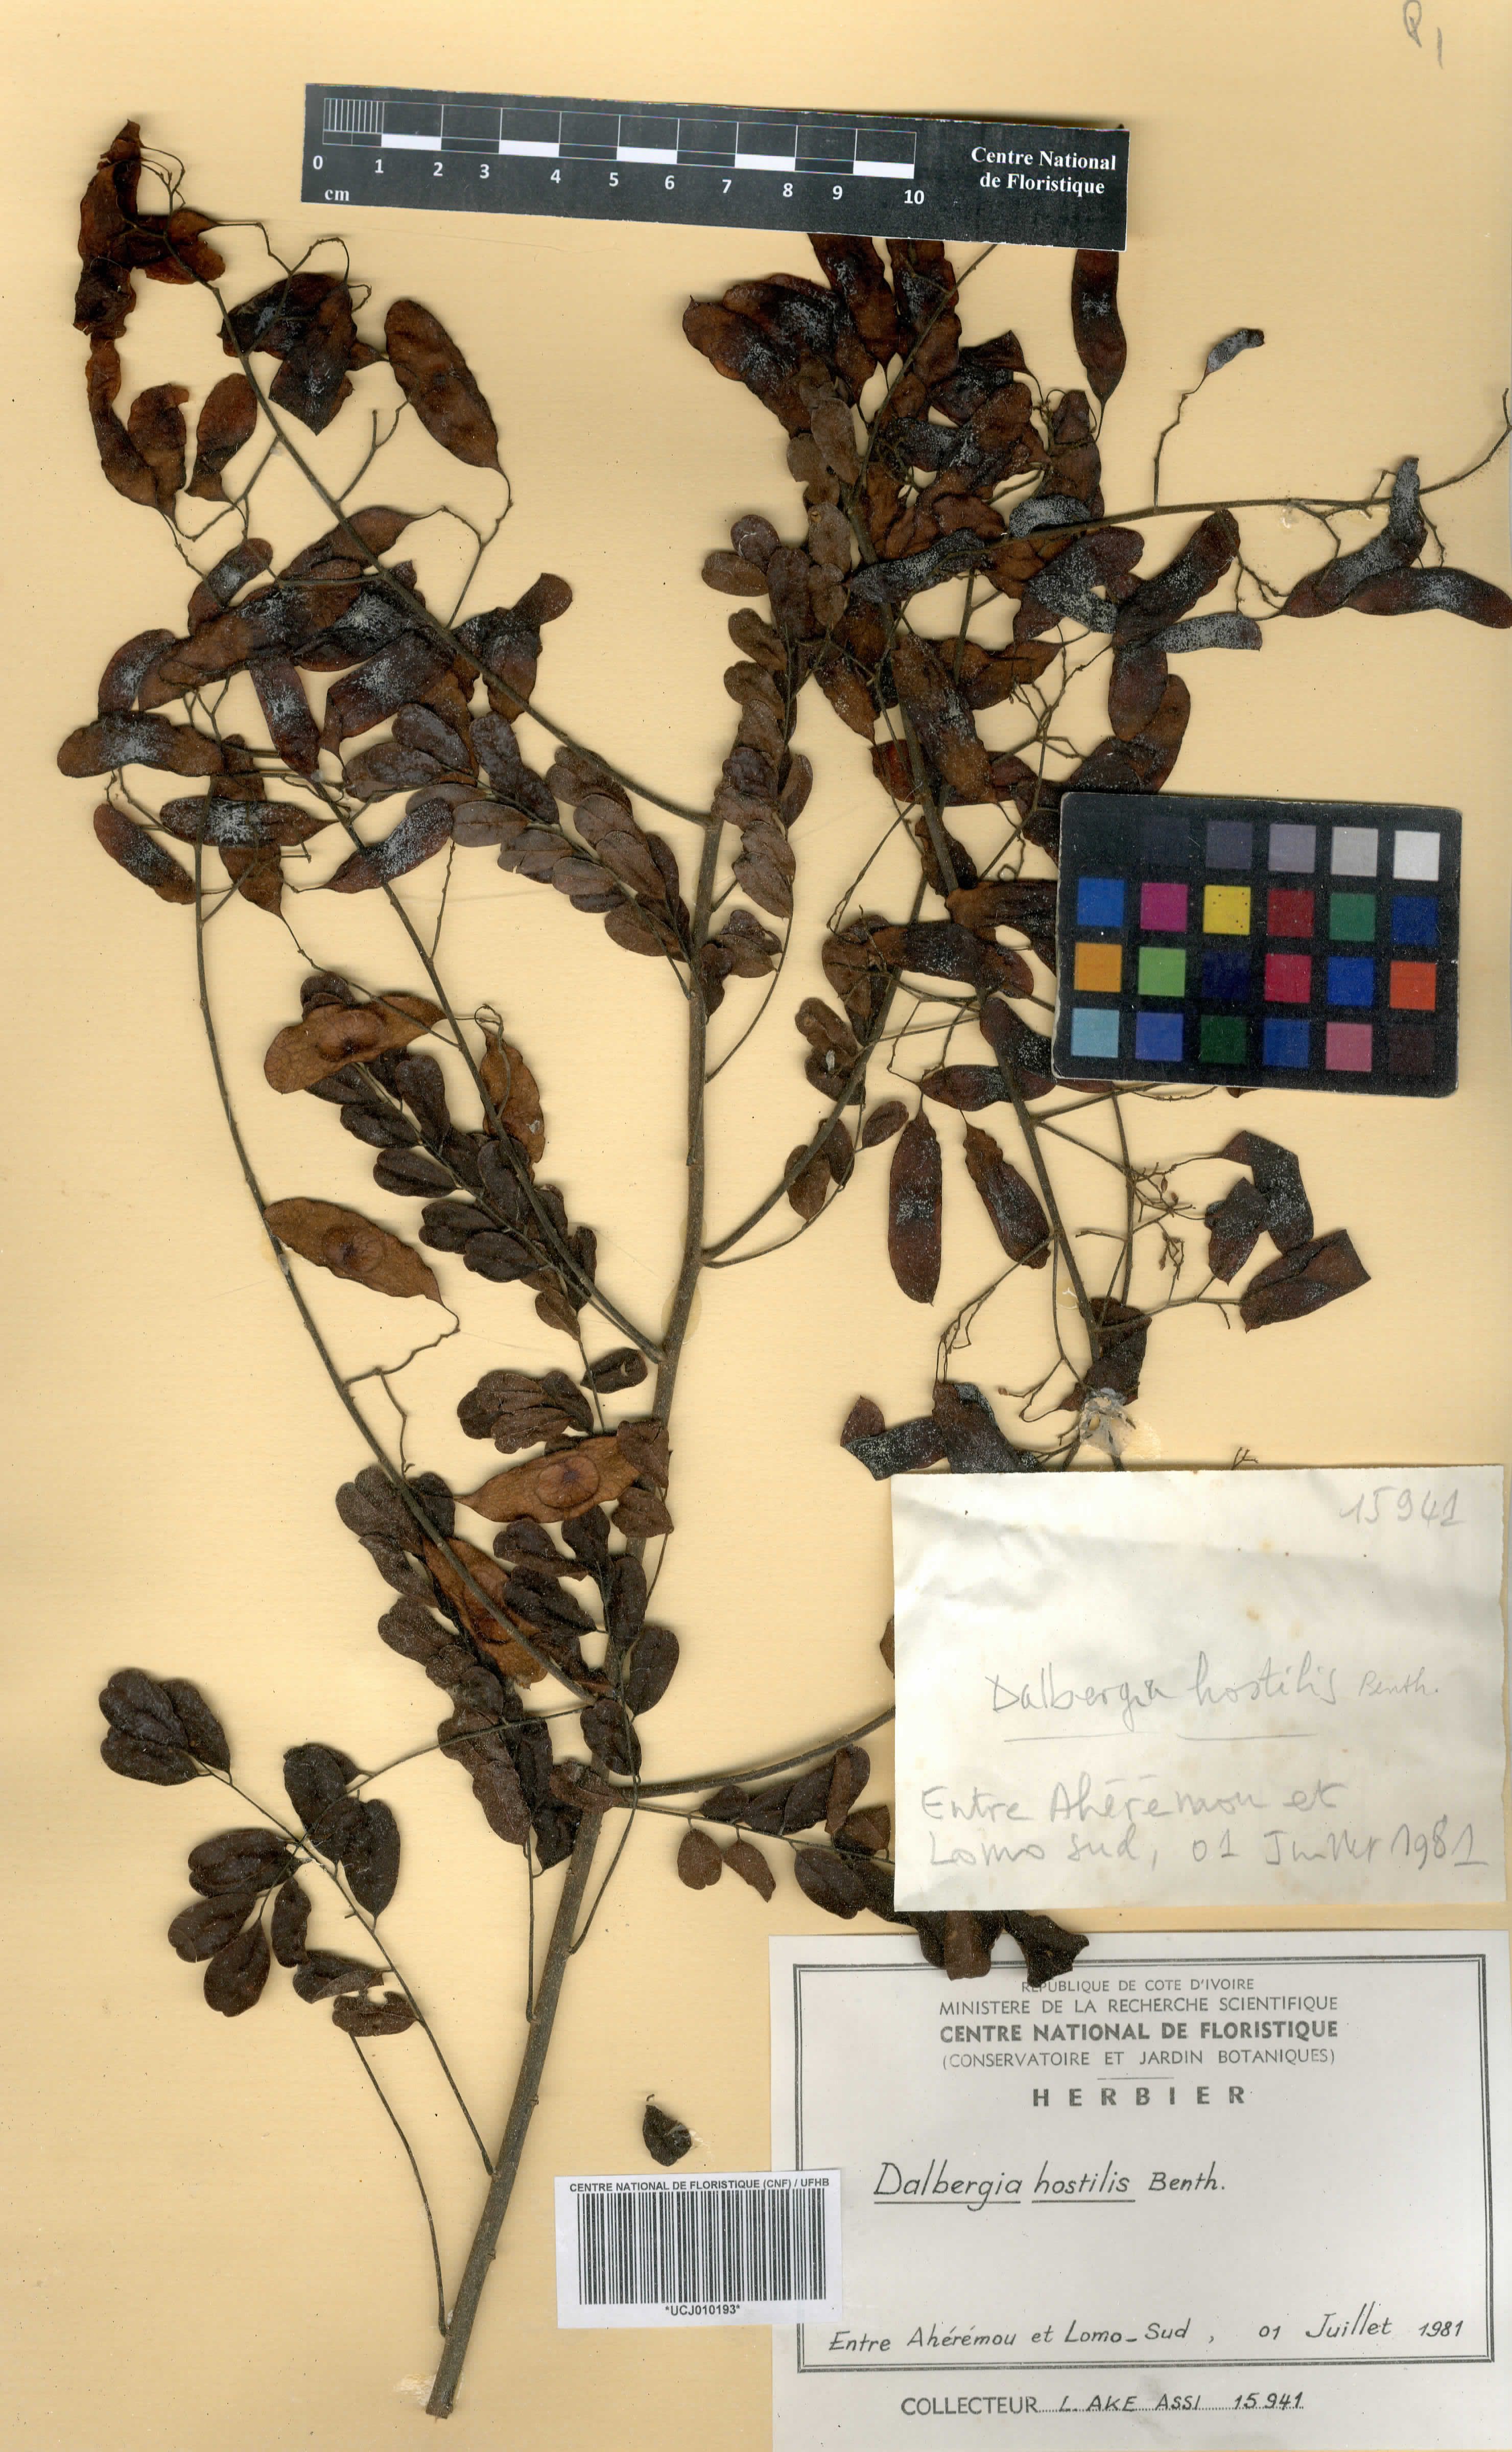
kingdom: Plantae
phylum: Tracheophyta
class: Magnoliopsida
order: Fabales
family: Fabaceae
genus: Dalbergia
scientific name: Dalbergia hostilis
